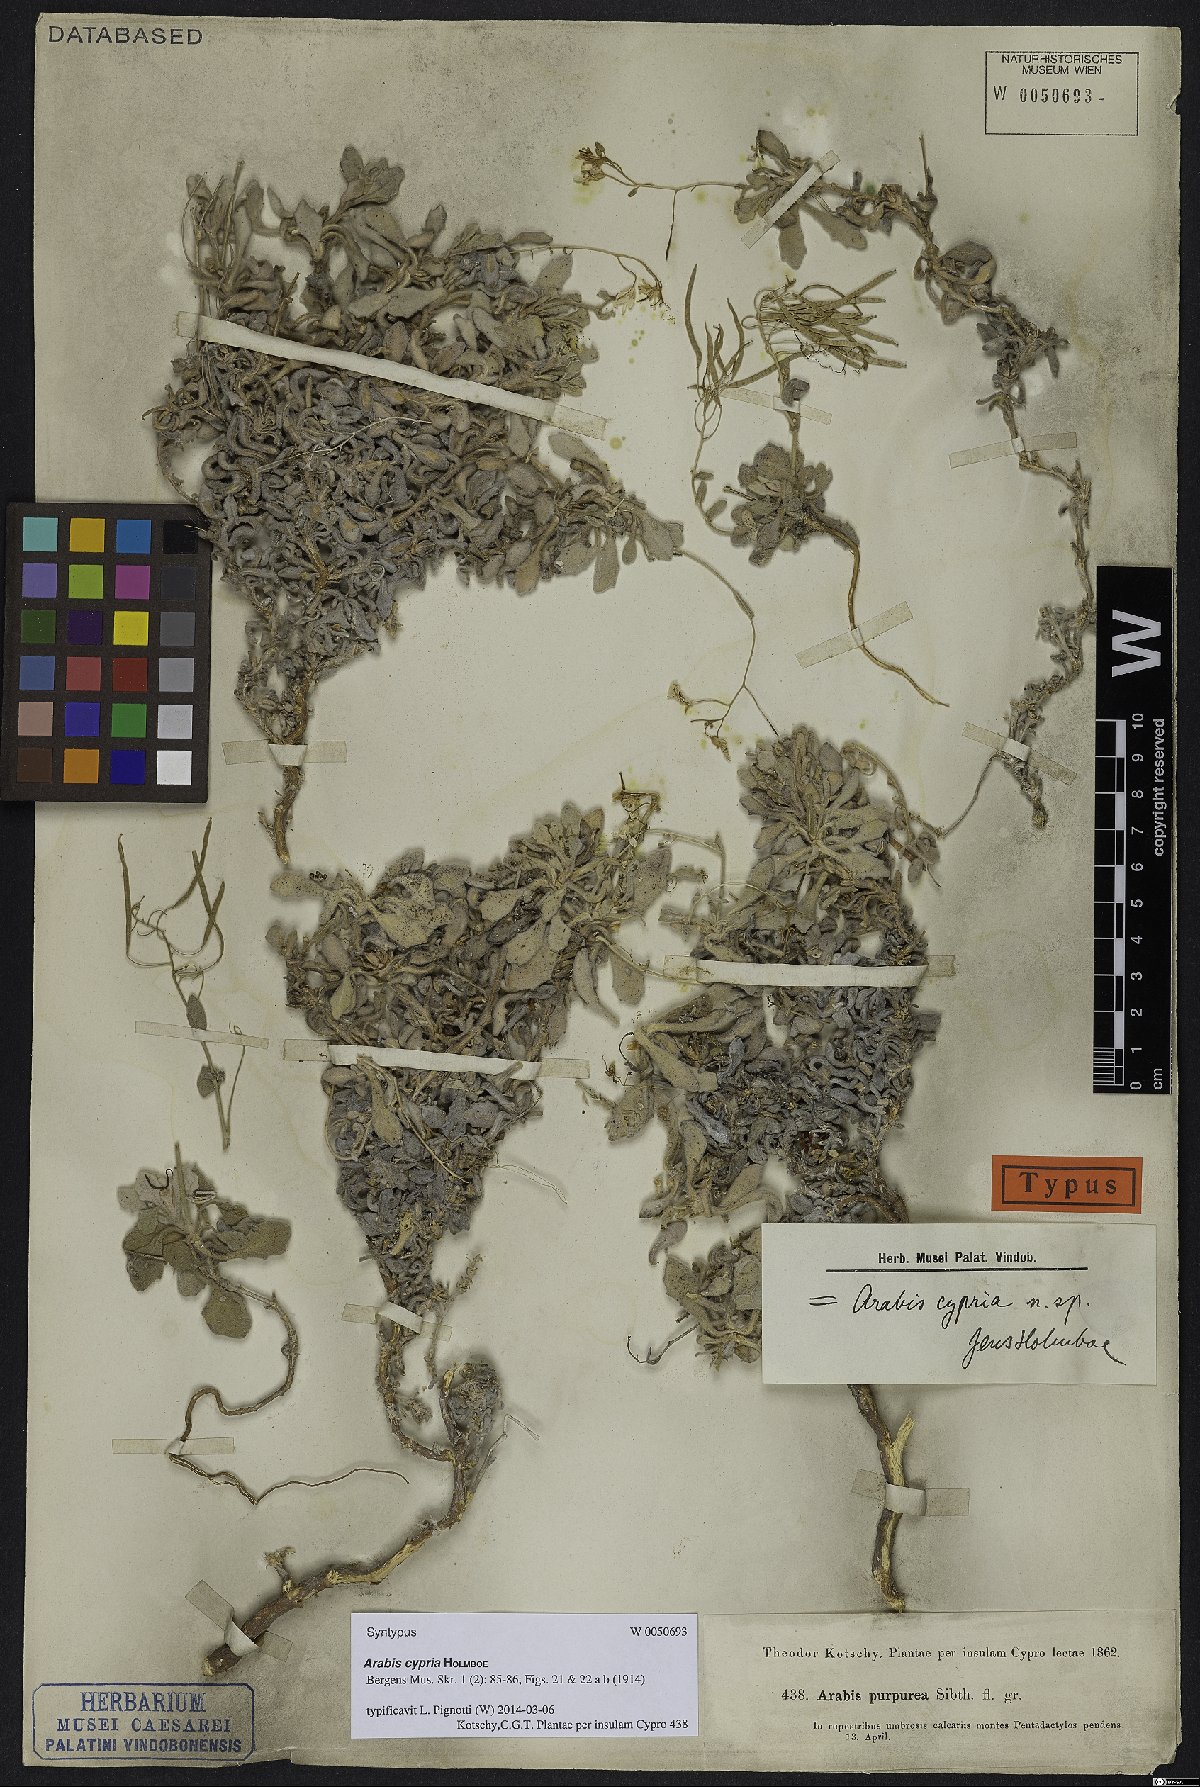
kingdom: Plantae
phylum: Tracheophyta
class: Magnoliopsida
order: Brassicales
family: Brassicaceae
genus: Arabis
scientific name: Arabis cypria
